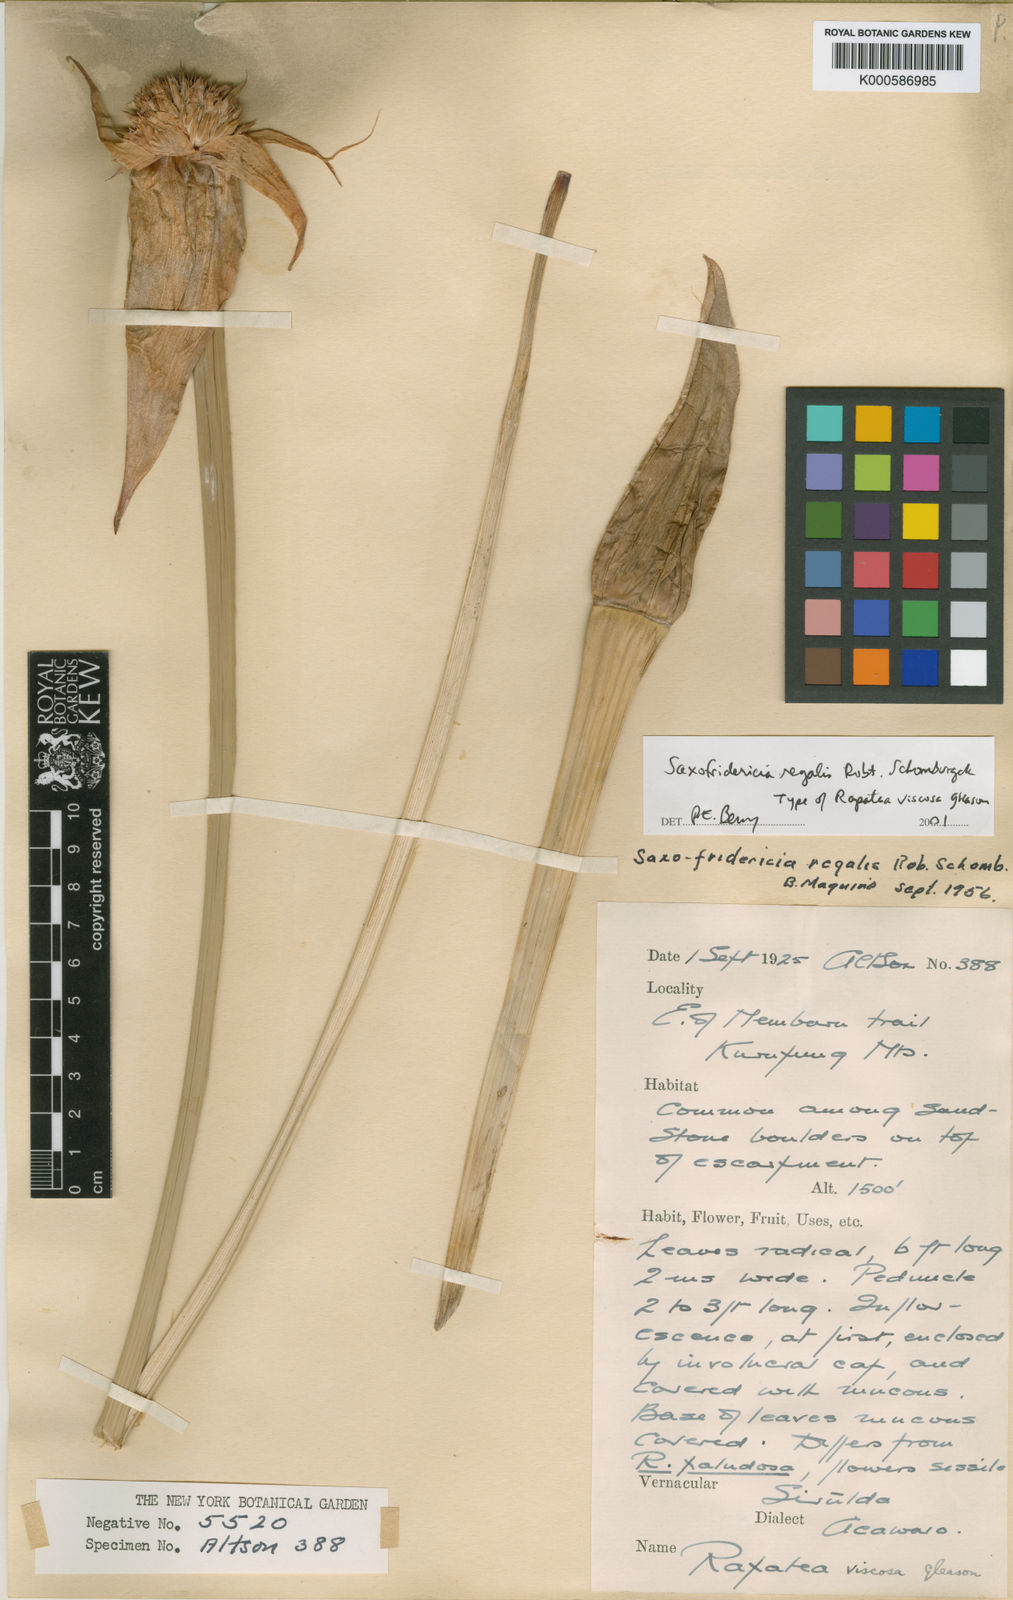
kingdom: Plantae
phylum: Tracheophyta
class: Liliopsida
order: Poales
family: Rapateaceae
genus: Saxofridericia
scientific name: Saxofridericia regalis
